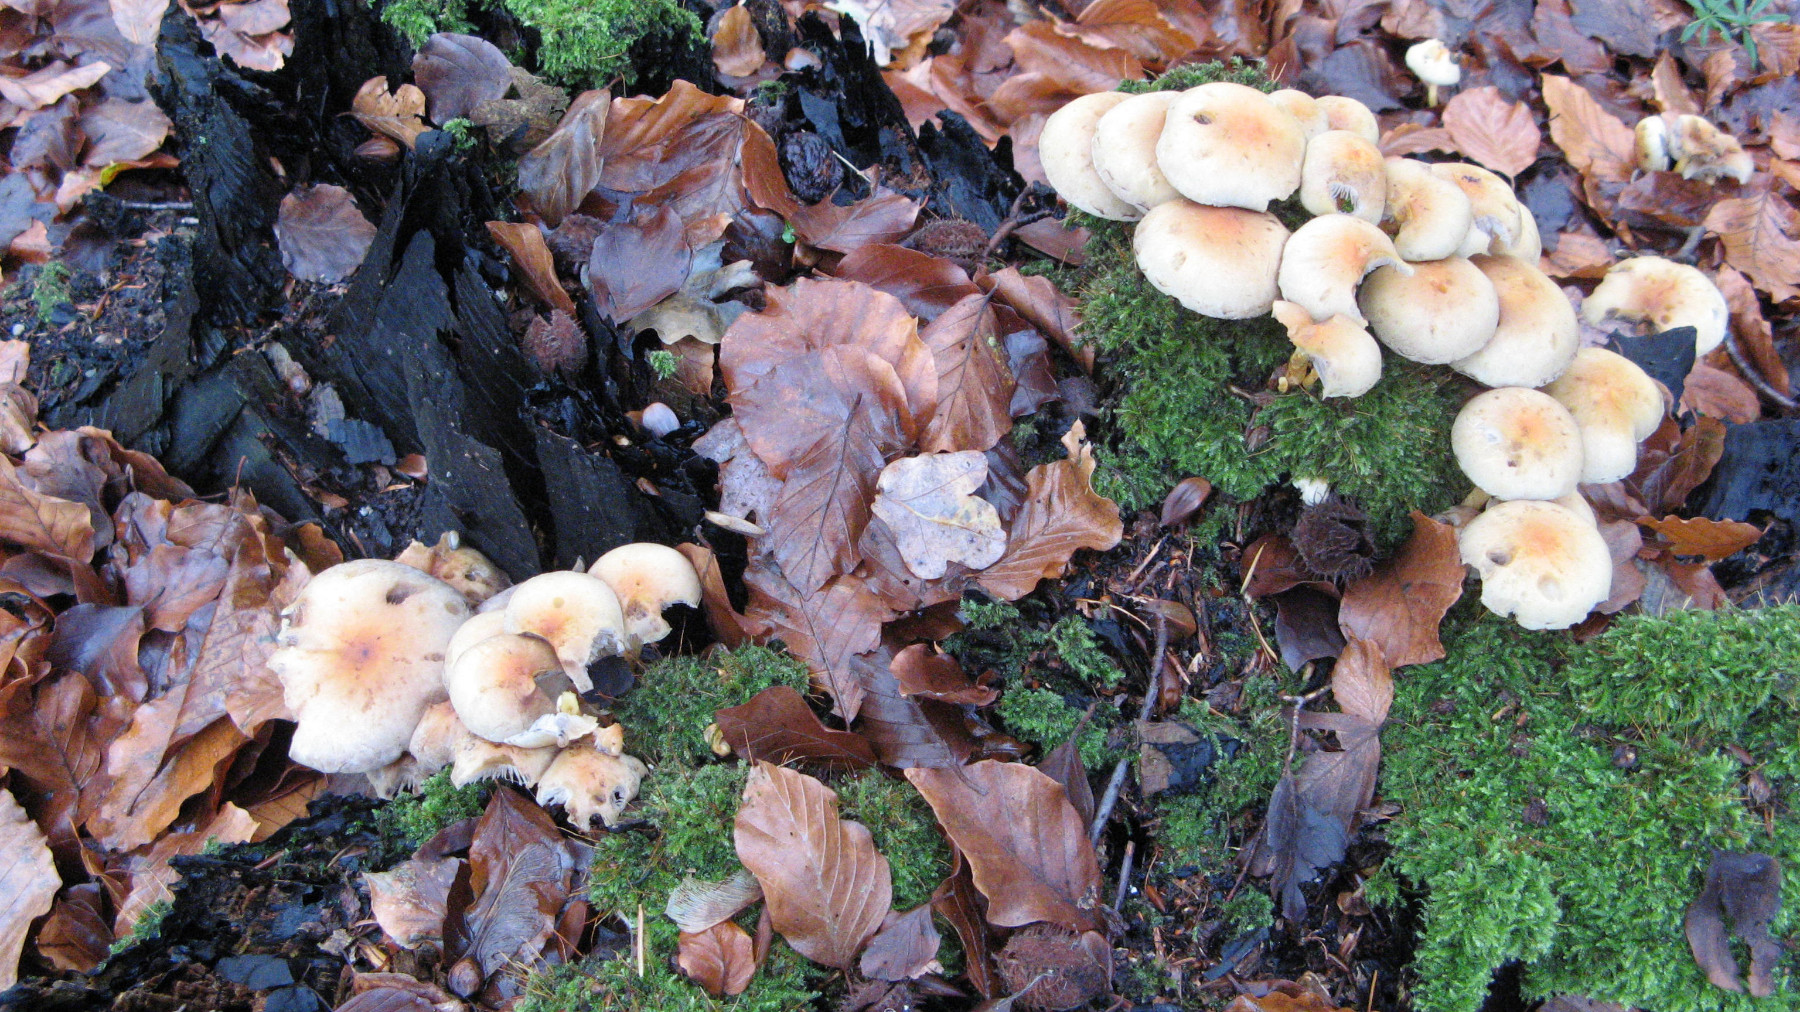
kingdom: Fungi
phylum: Basidiomycota
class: Agaricomycetes
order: Agaricales
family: Strophariaceae
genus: Hypholoma
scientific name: Hypholoma fasciculare
